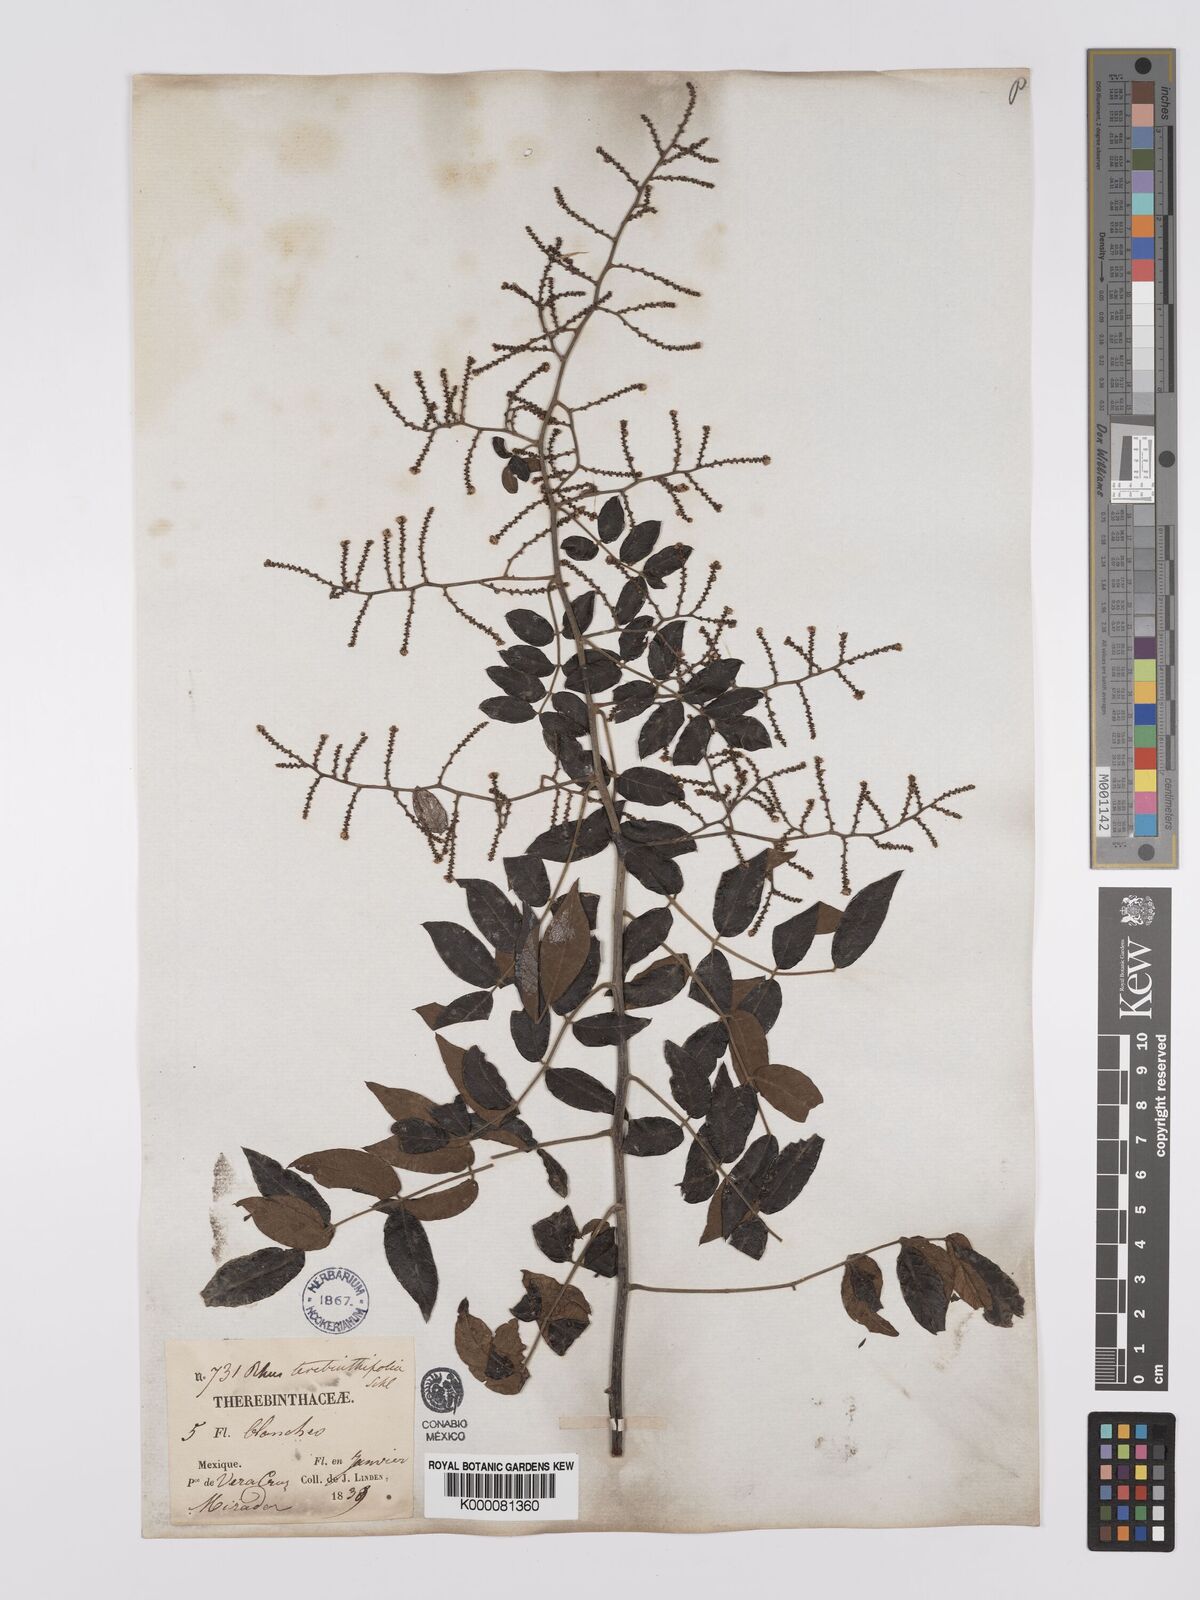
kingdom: Plantae
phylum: Tracheophyta
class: Magnoliopsida
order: Sapindales
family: Anacardiaceae
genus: Rhus
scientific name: Rhus
